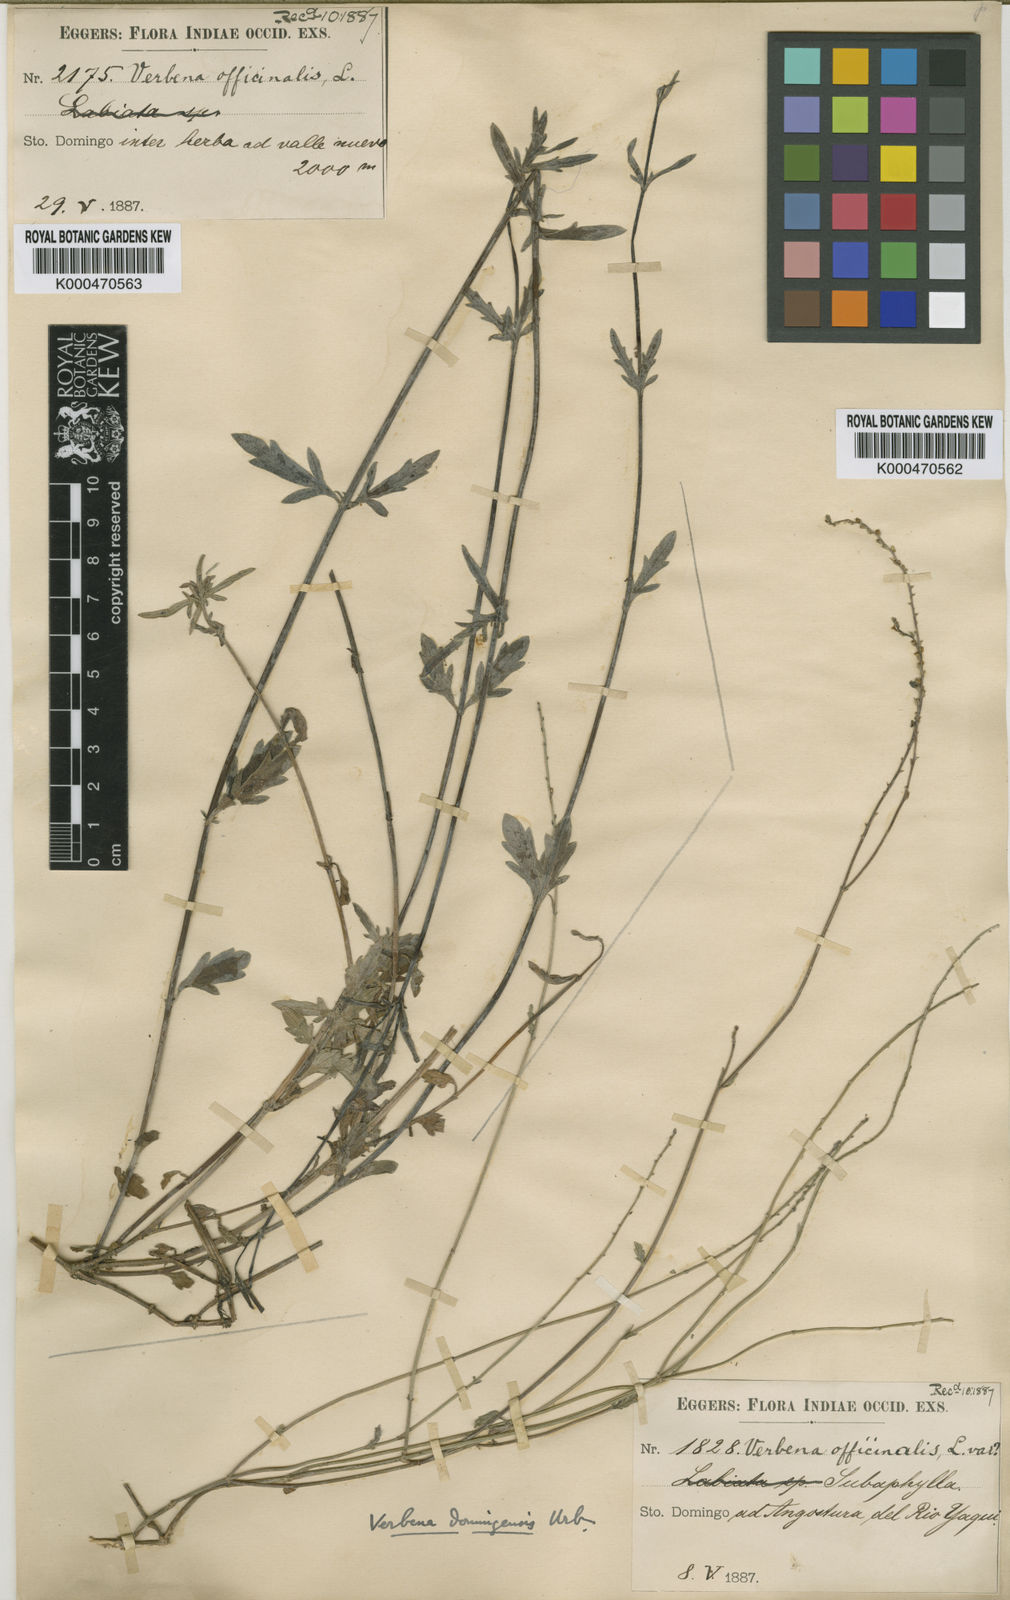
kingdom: Plantae
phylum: Tracheophyta
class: Magnoliopsida
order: Lamiales
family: Verbenaceae
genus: Verbena
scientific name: Verbena officinalis
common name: Vervain
